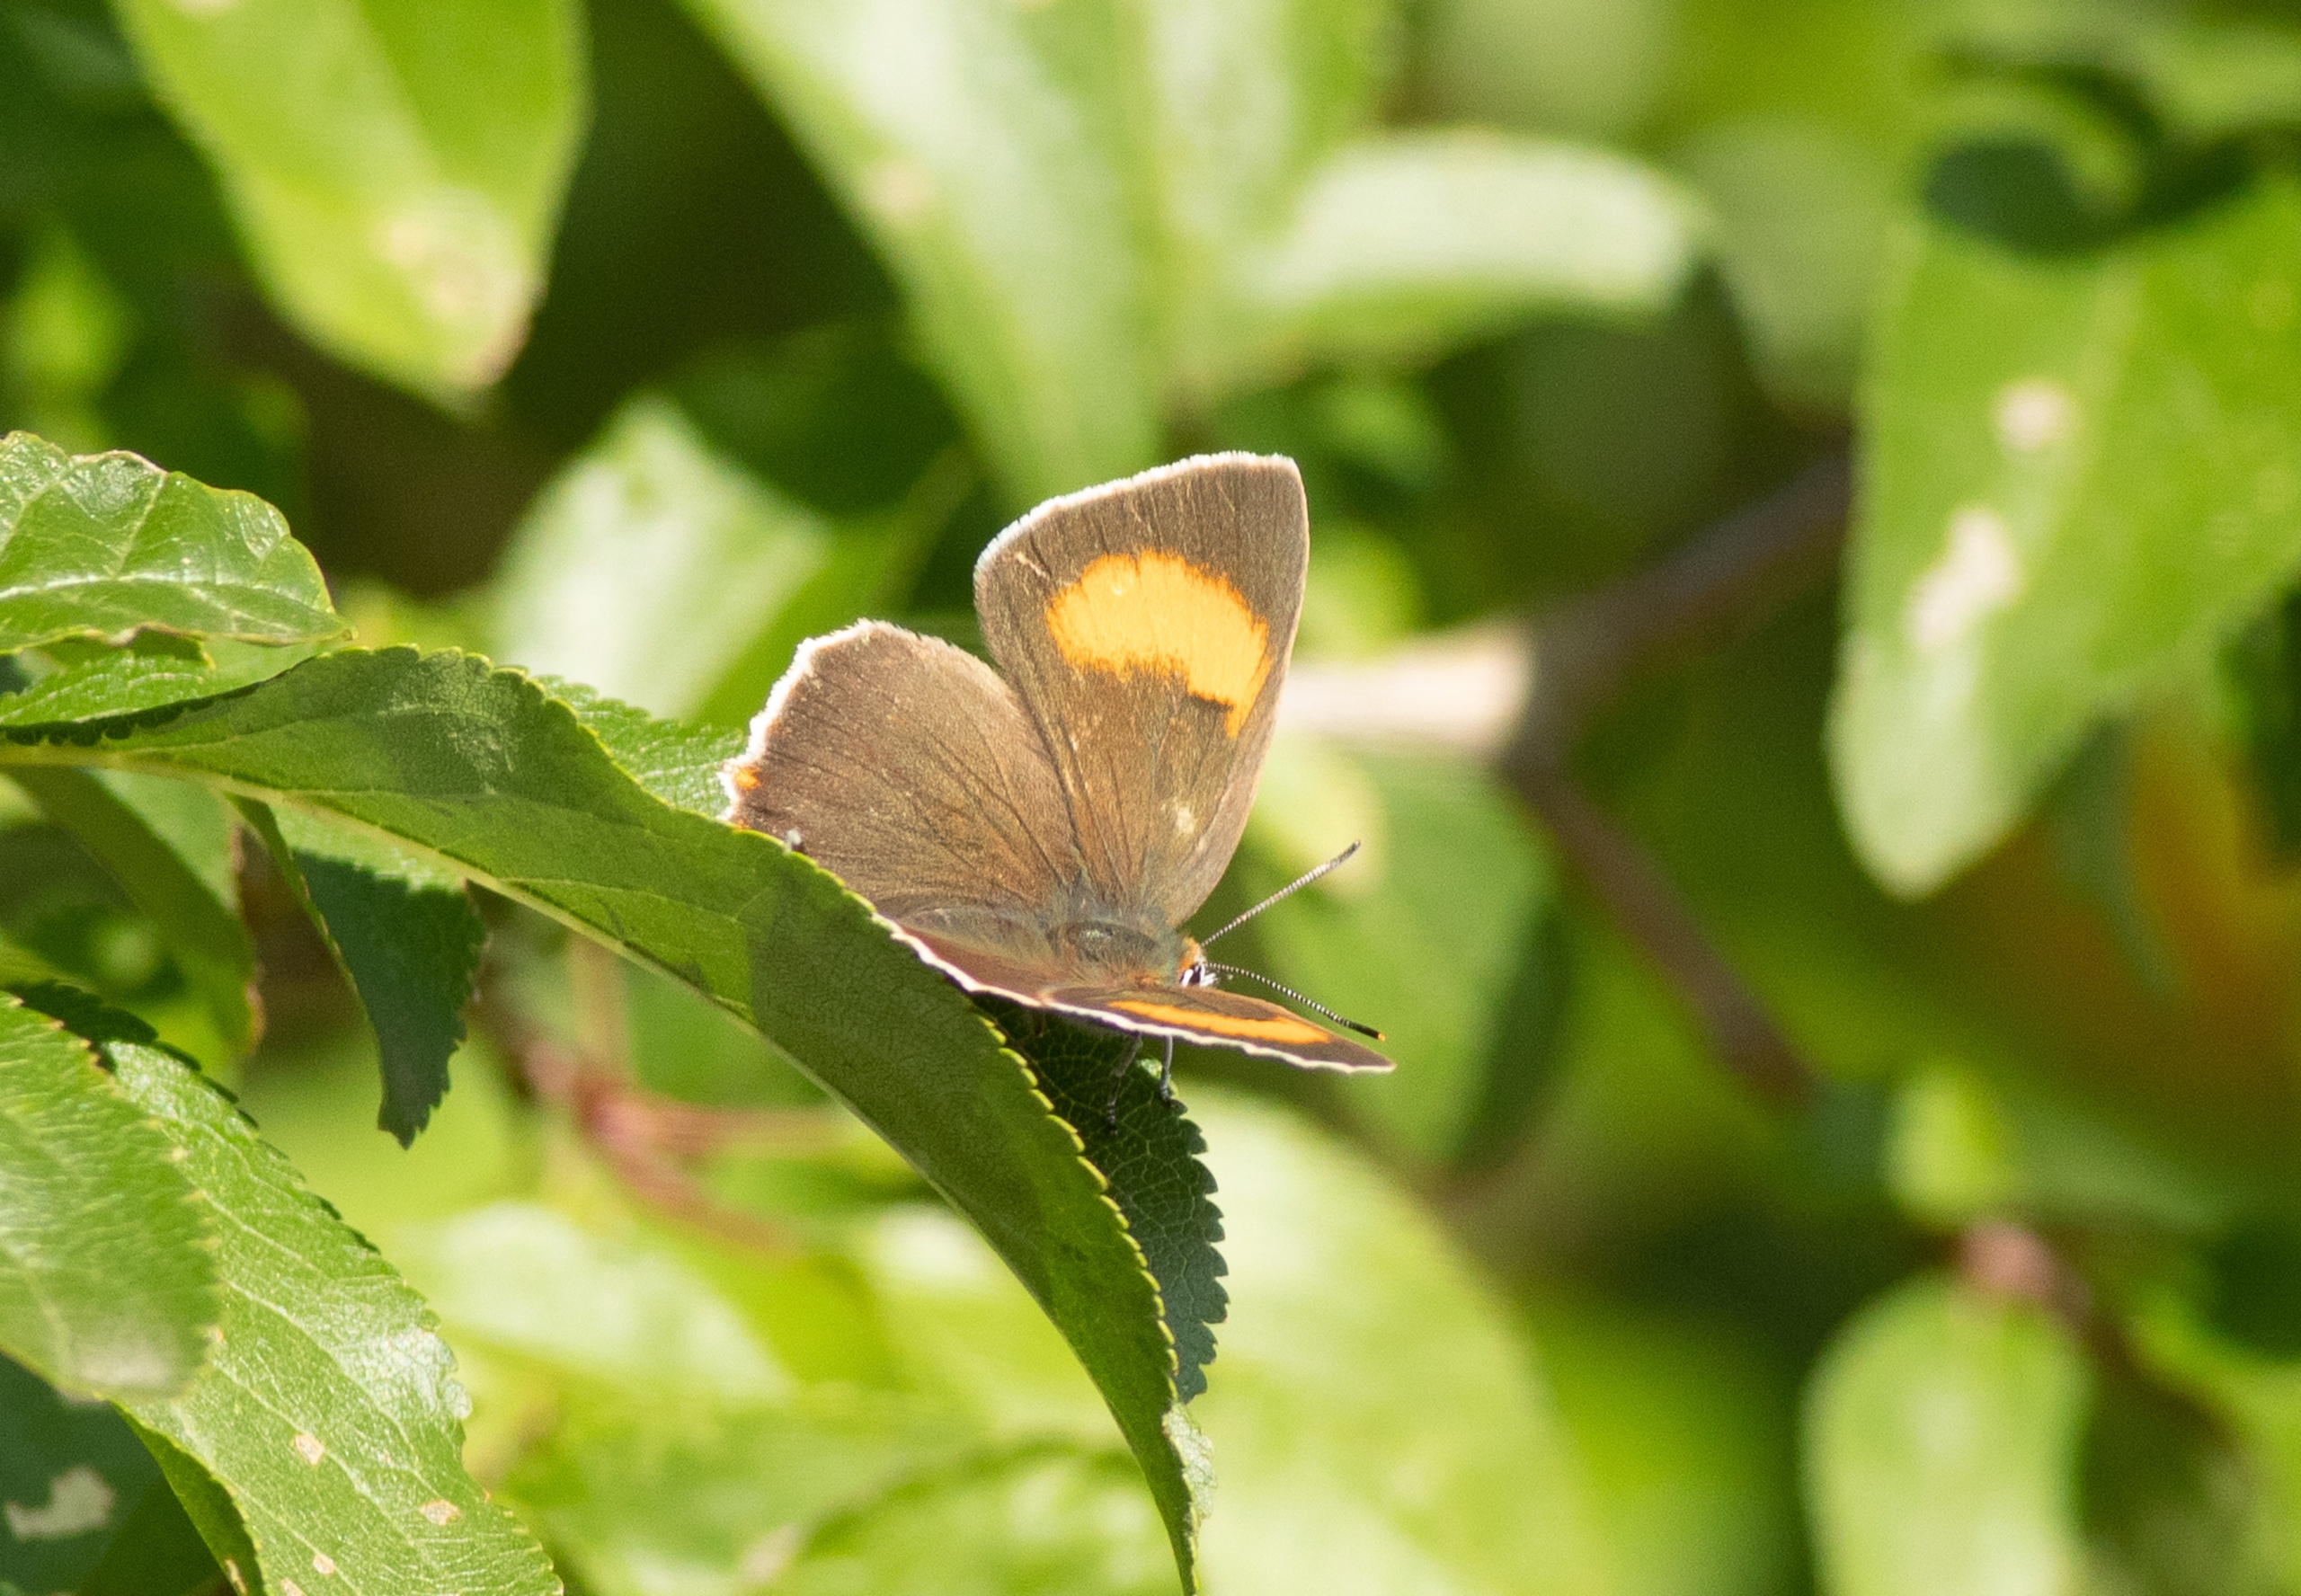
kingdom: Animalia
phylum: Arthropoda
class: Insecta
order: Lepidoptera
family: Lycaenidae
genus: Thecla
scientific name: Thecla betulae
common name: Guldhale
